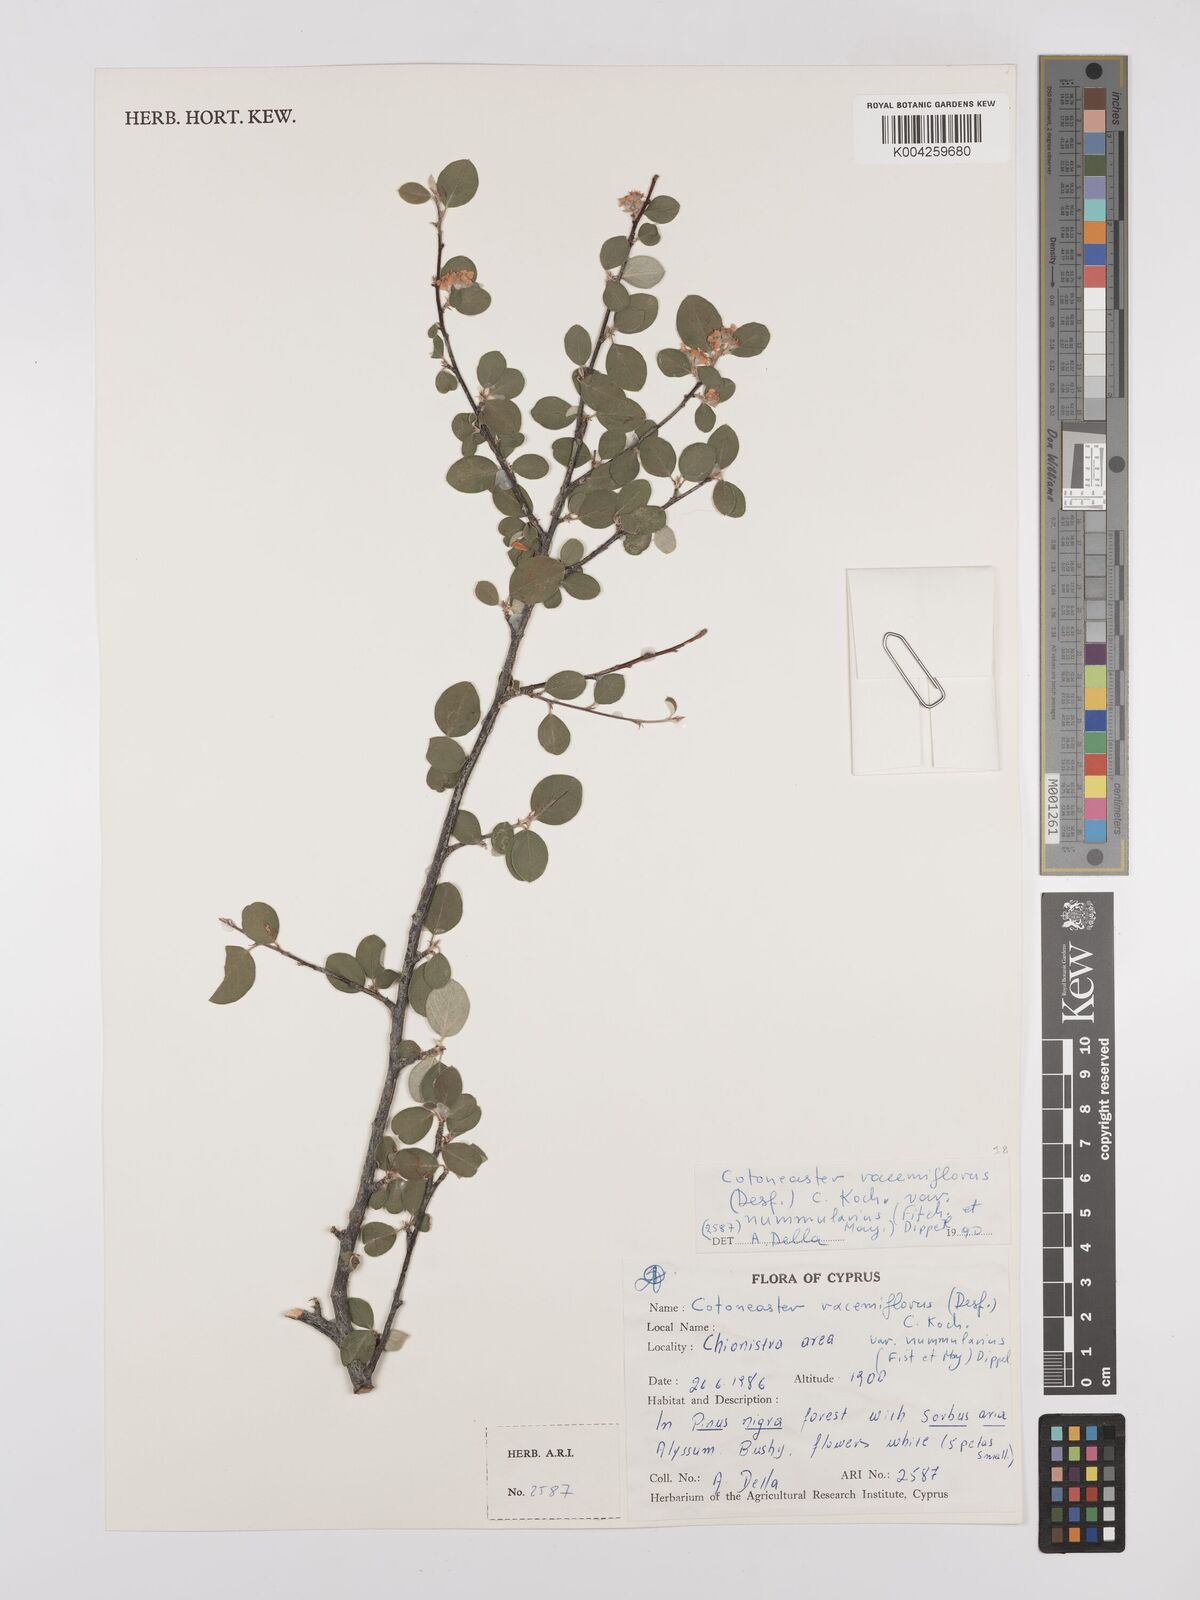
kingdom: Plantae
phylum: Tracheophyta
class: Magnoliopsida
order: Rosales
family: Rosaceae
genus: Cotoneaster
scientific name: Cotoneaster nummularius
